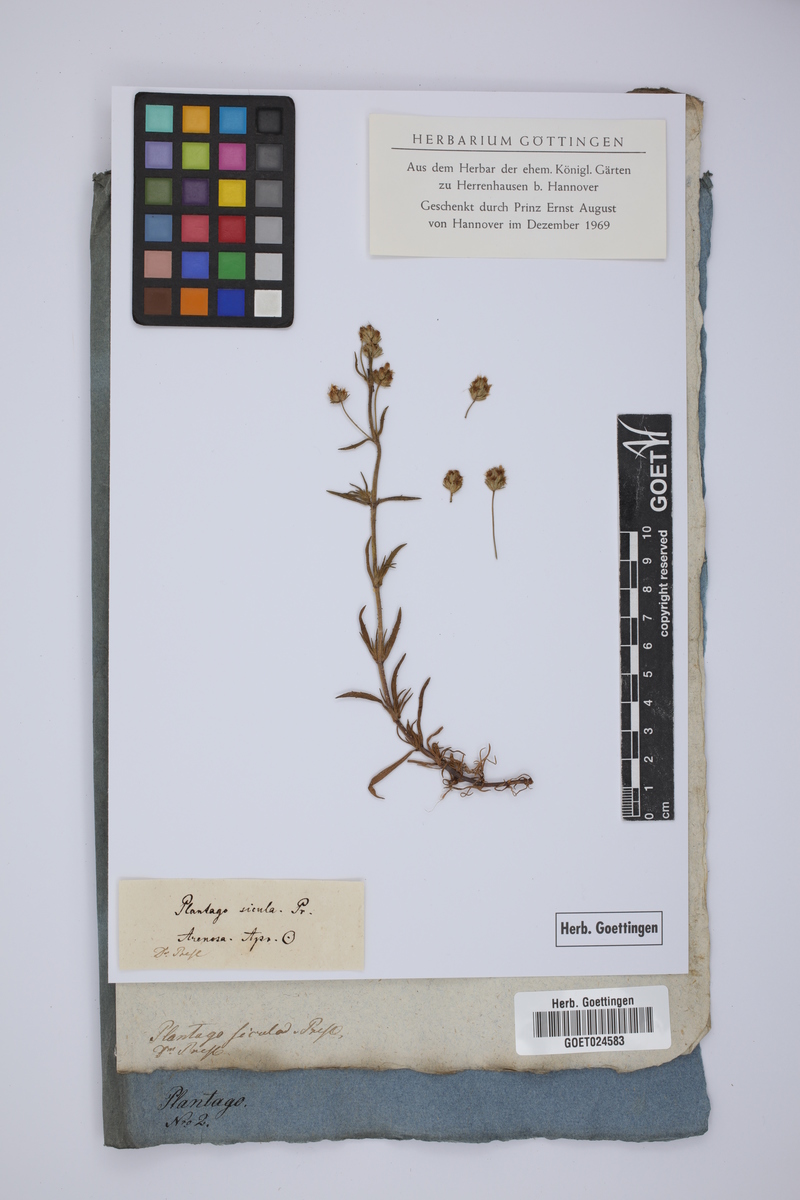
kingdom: Plantae
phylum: Tracheophyta
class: Magnoliopsida
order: Lamiales
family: Plantaginaceae
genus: Plantago
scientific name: Plantago afra
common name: Glandular plantain
